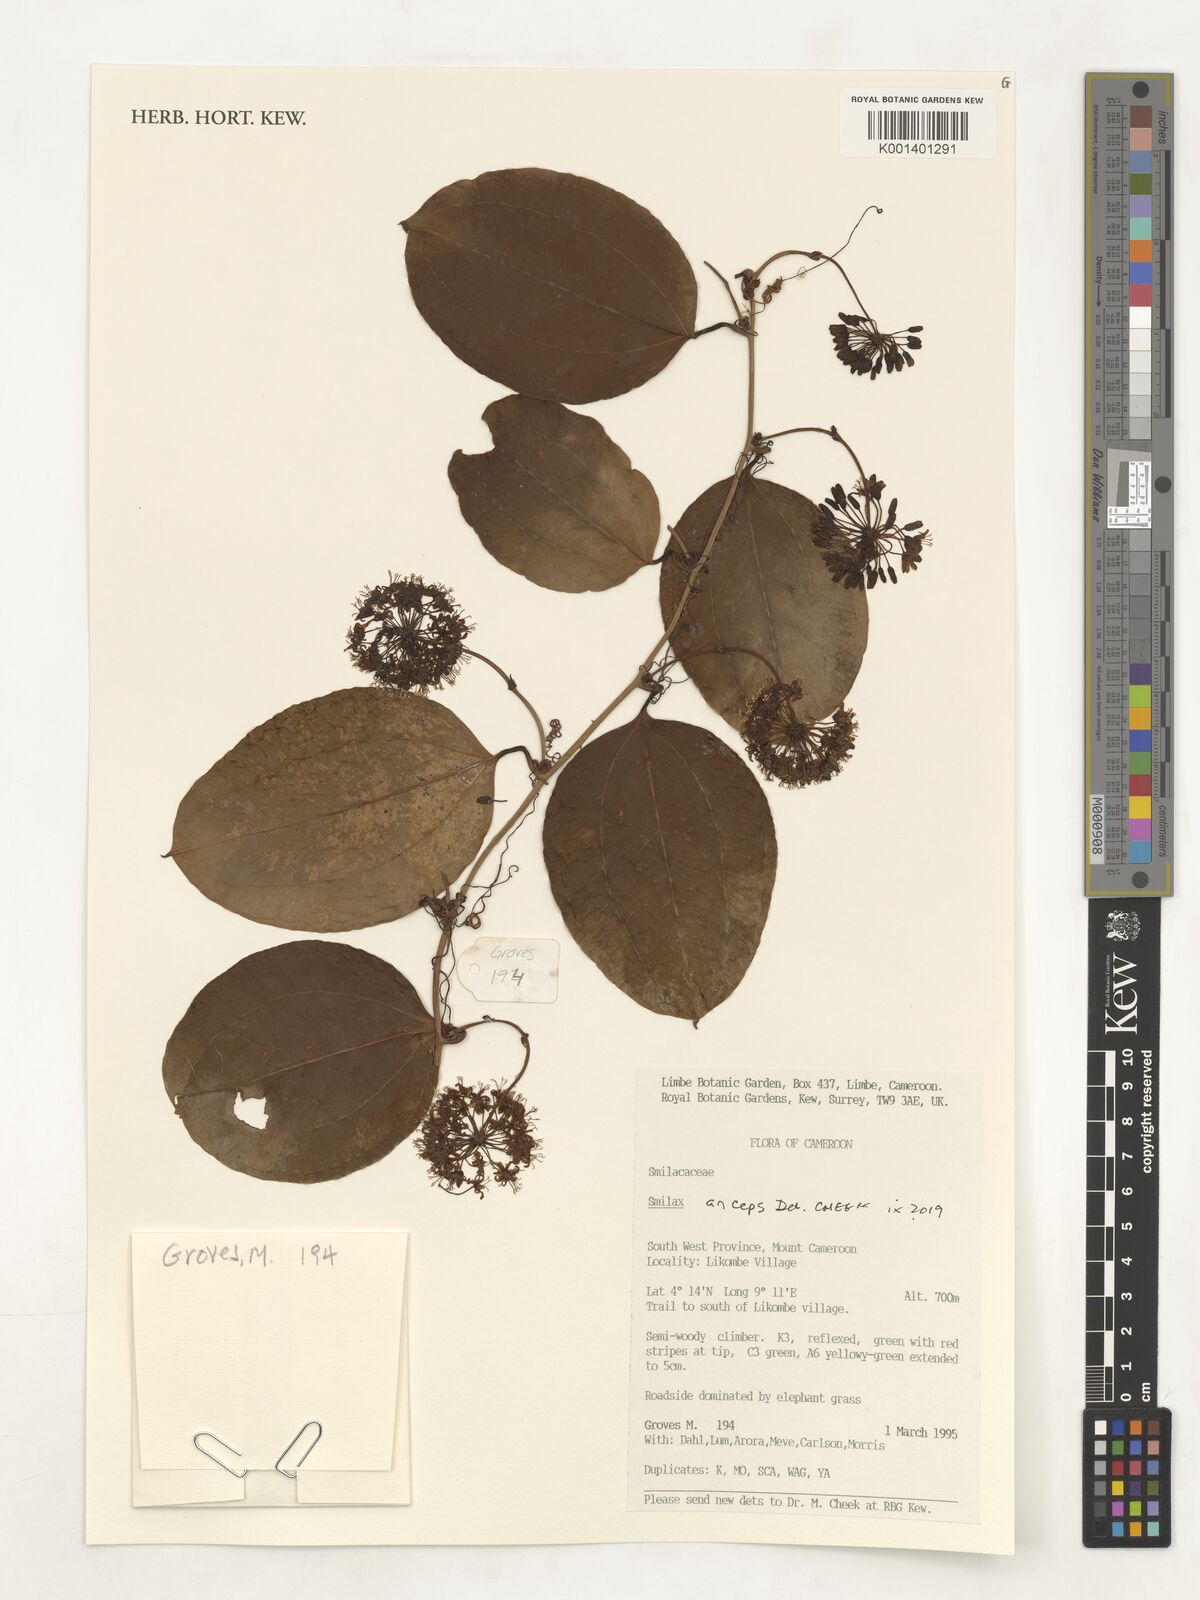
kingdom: Plantae
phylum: Tracheophyta
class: Liliopsida
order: Liliales
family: Smilacaceae
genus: Smilax
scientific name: Smilax anceps
